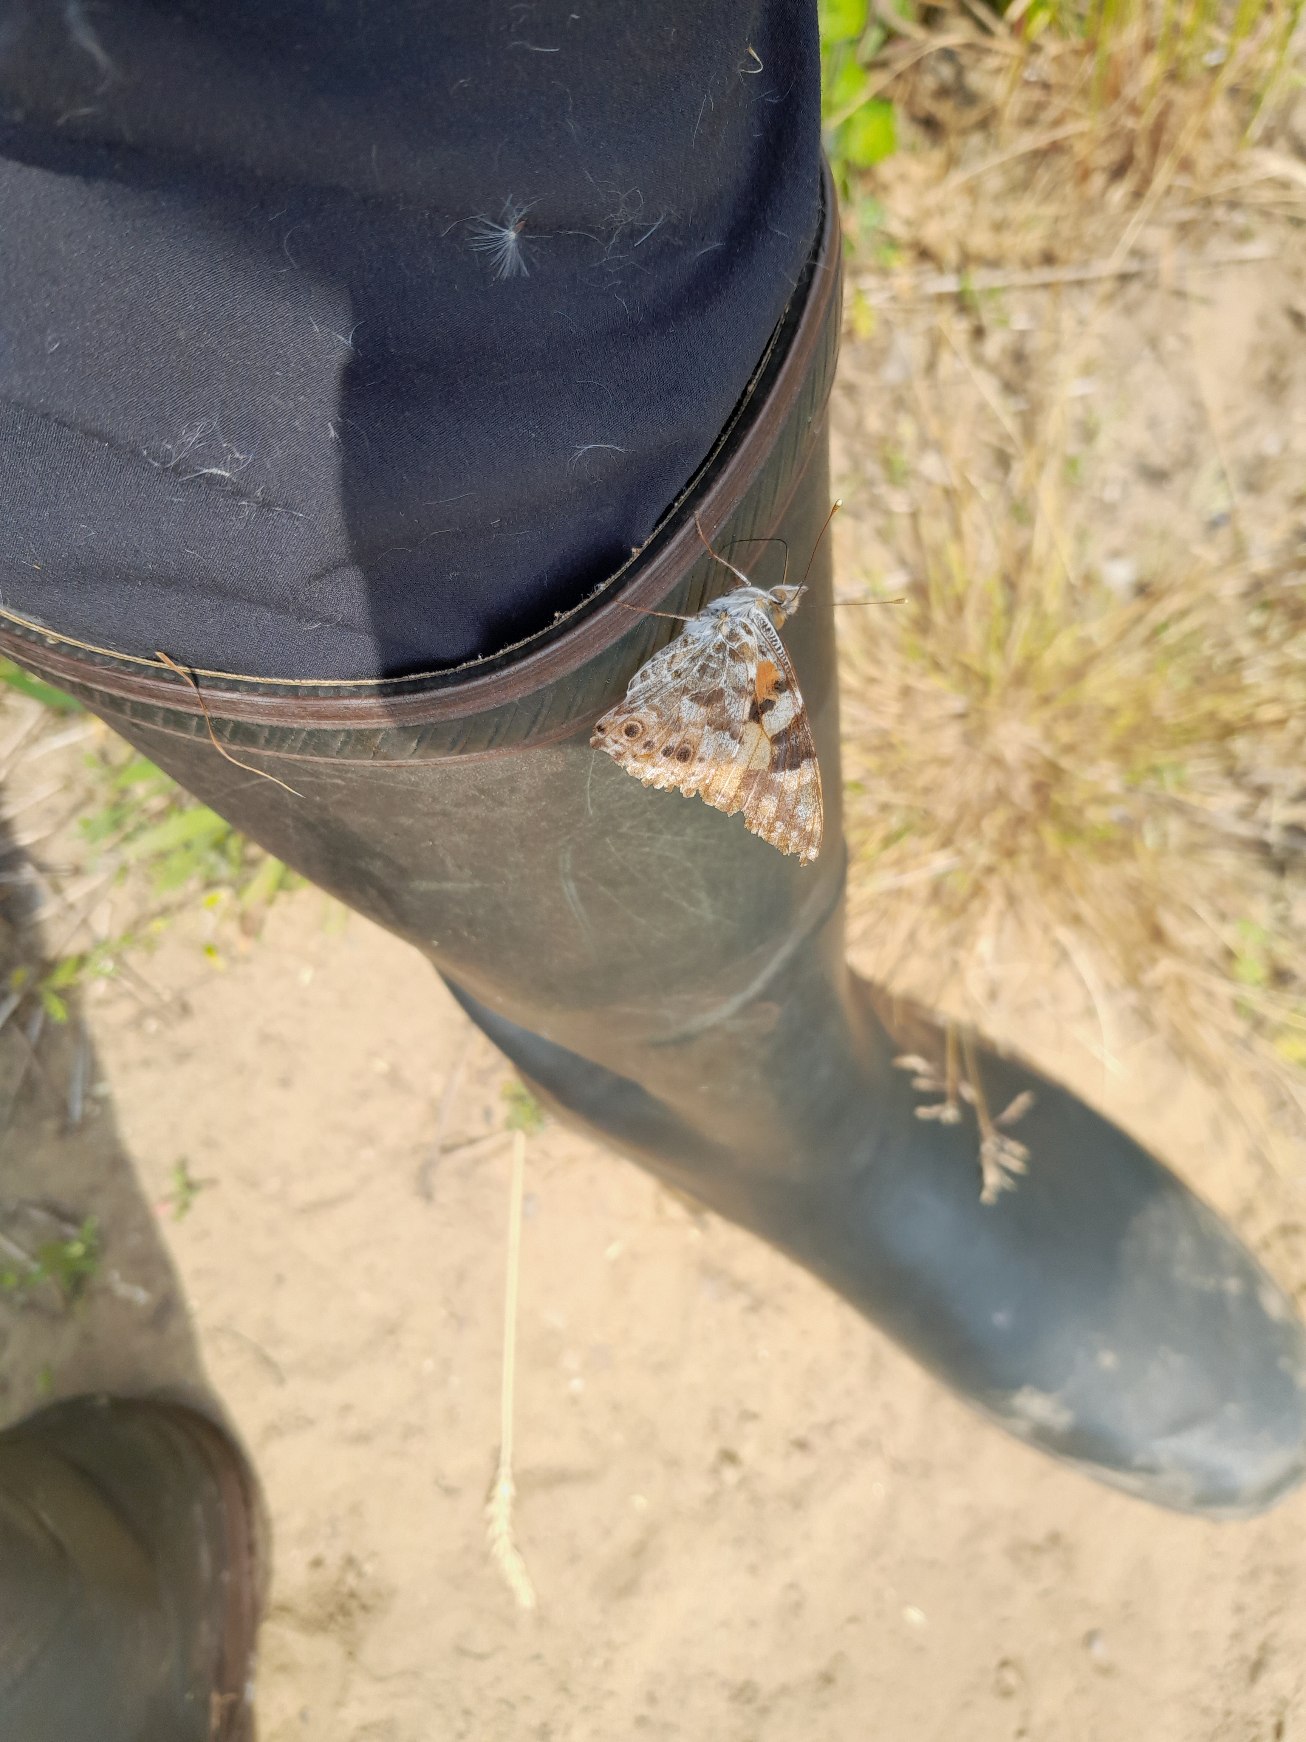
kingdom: Animalia
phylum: Arthropoda
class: Insecta
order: Lepidoptera
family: Nymphalidae
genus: Vanessa
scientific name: Vanessa cardui
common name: Tidselsommerfugl
